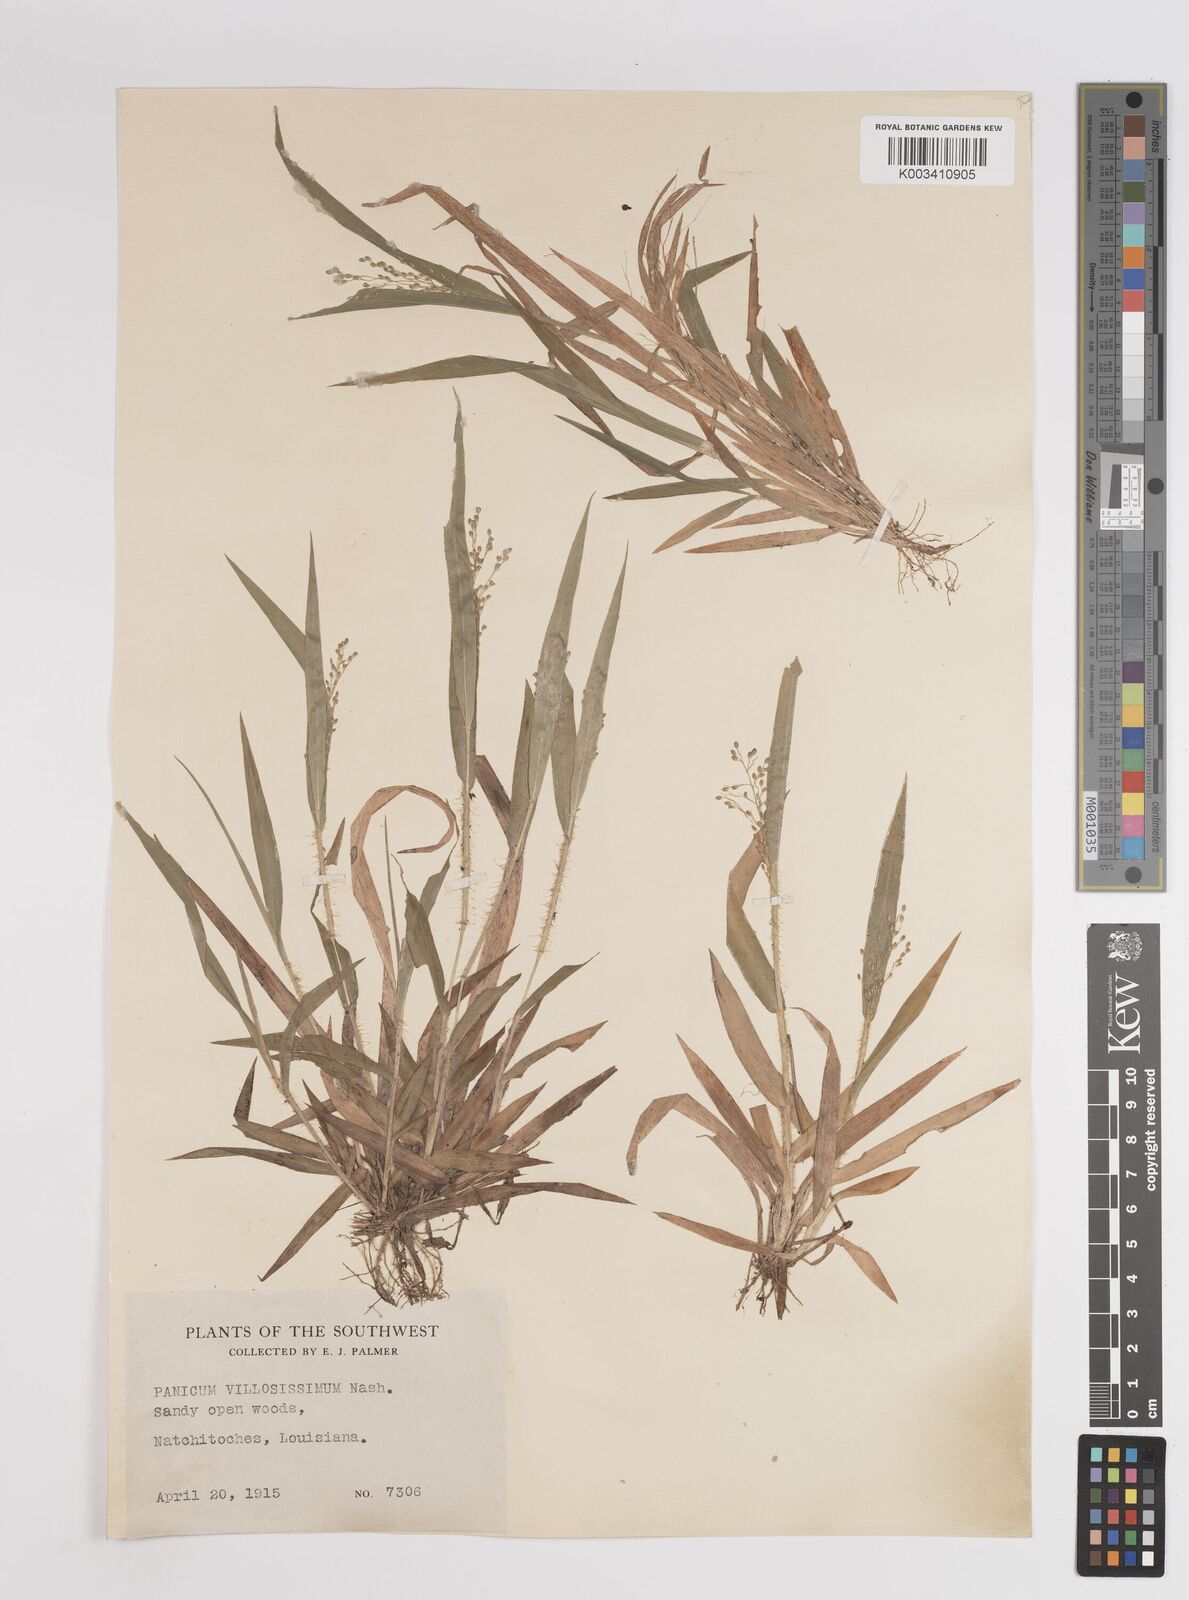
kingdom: Plantae
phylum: Tracheophyta
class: Liliopsida
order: Poales
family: Poaceae
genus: Dichanthelium
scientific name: Dichanthelium villosissimum
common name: White-haired panicgrass
